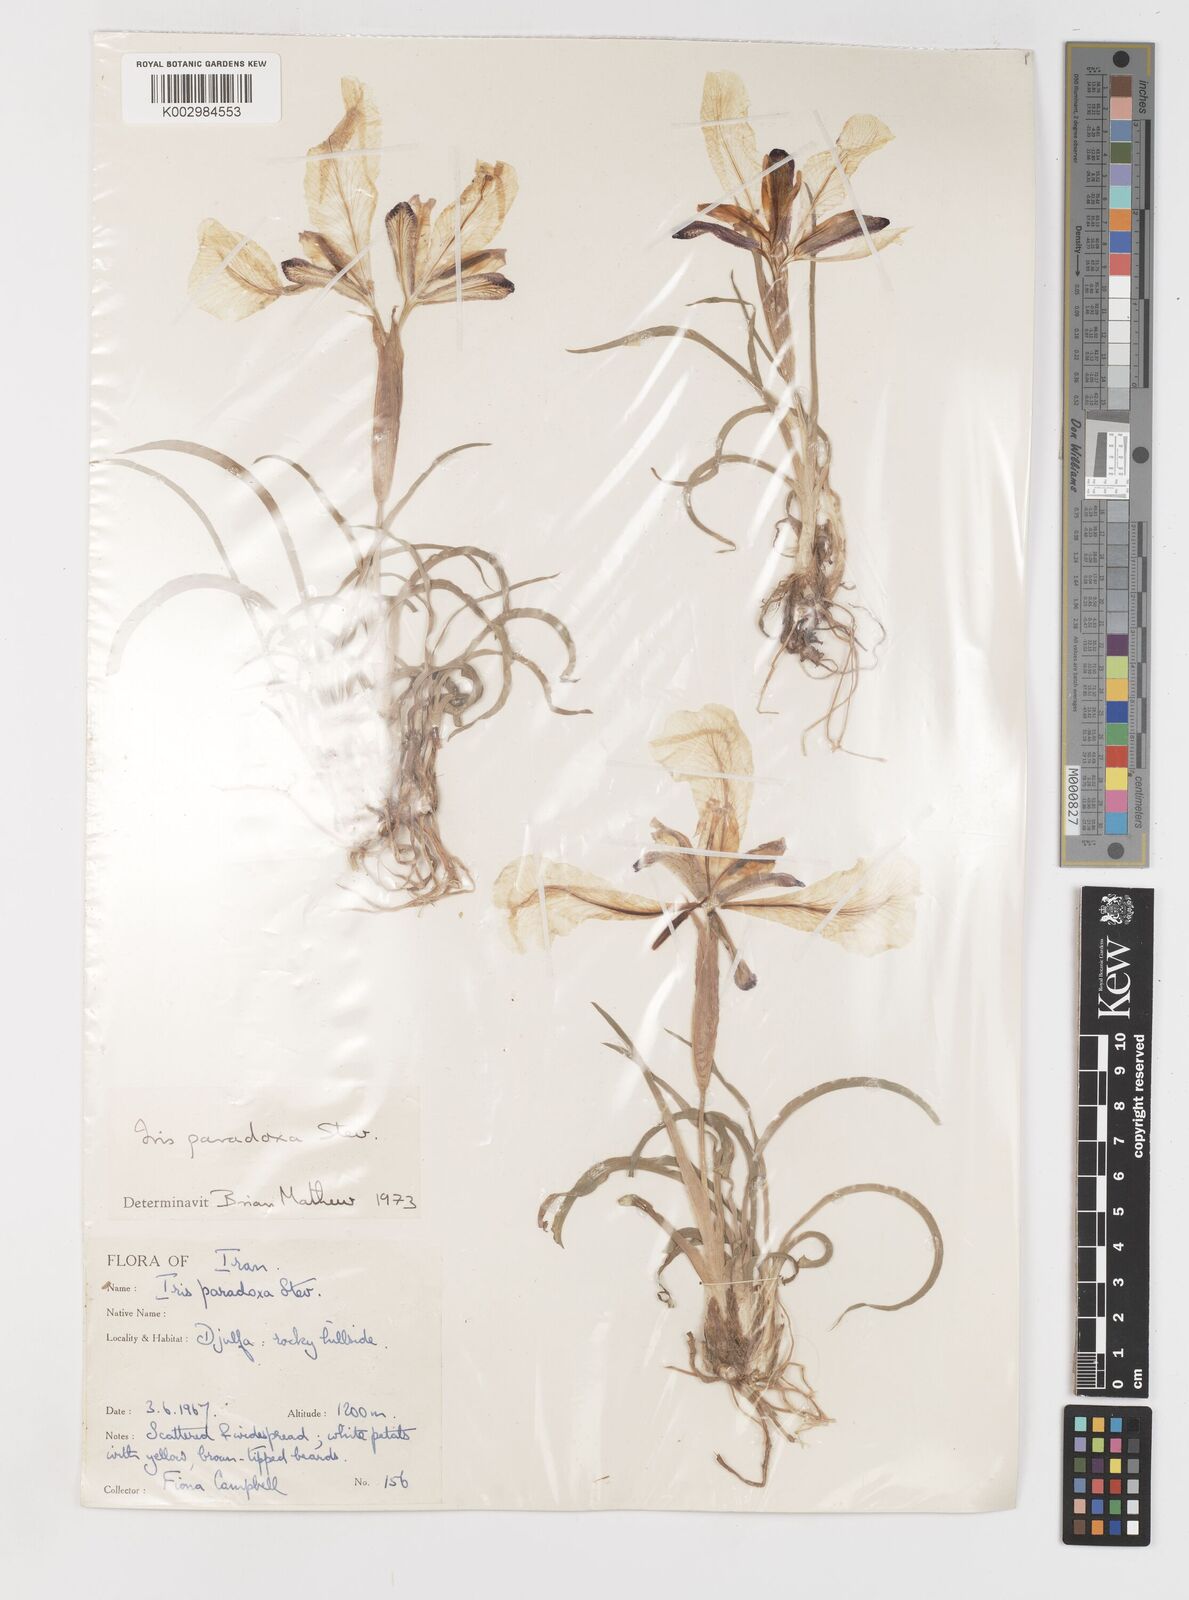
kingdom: Plantae
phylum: Tracheophyta
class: Liliopsida
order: Asparagales
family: Iridaceae
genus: Iris
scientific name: Iris paradoxa
